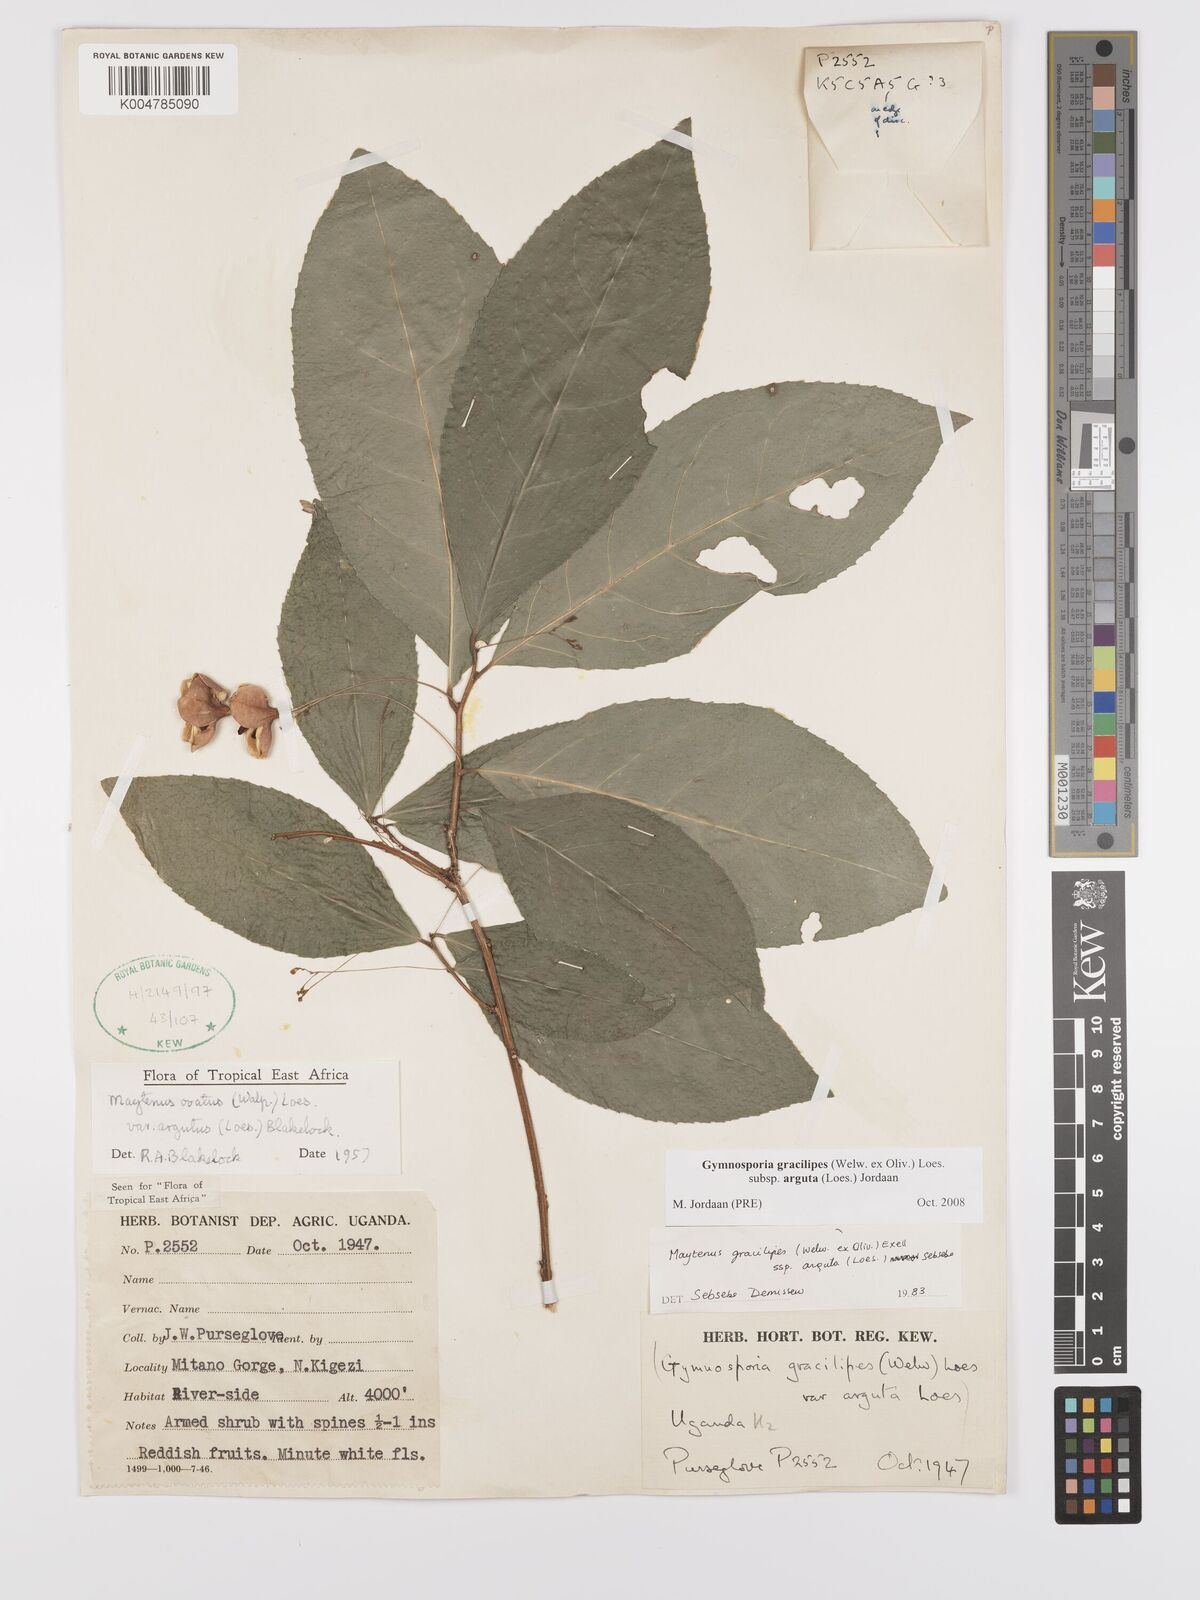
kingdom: Plantae
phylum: Tracheophyta
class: Magnoliopsida
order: Celastrales
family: Celastraceae
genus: Gymnosporia
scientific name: Gymnosporia gracilipes
